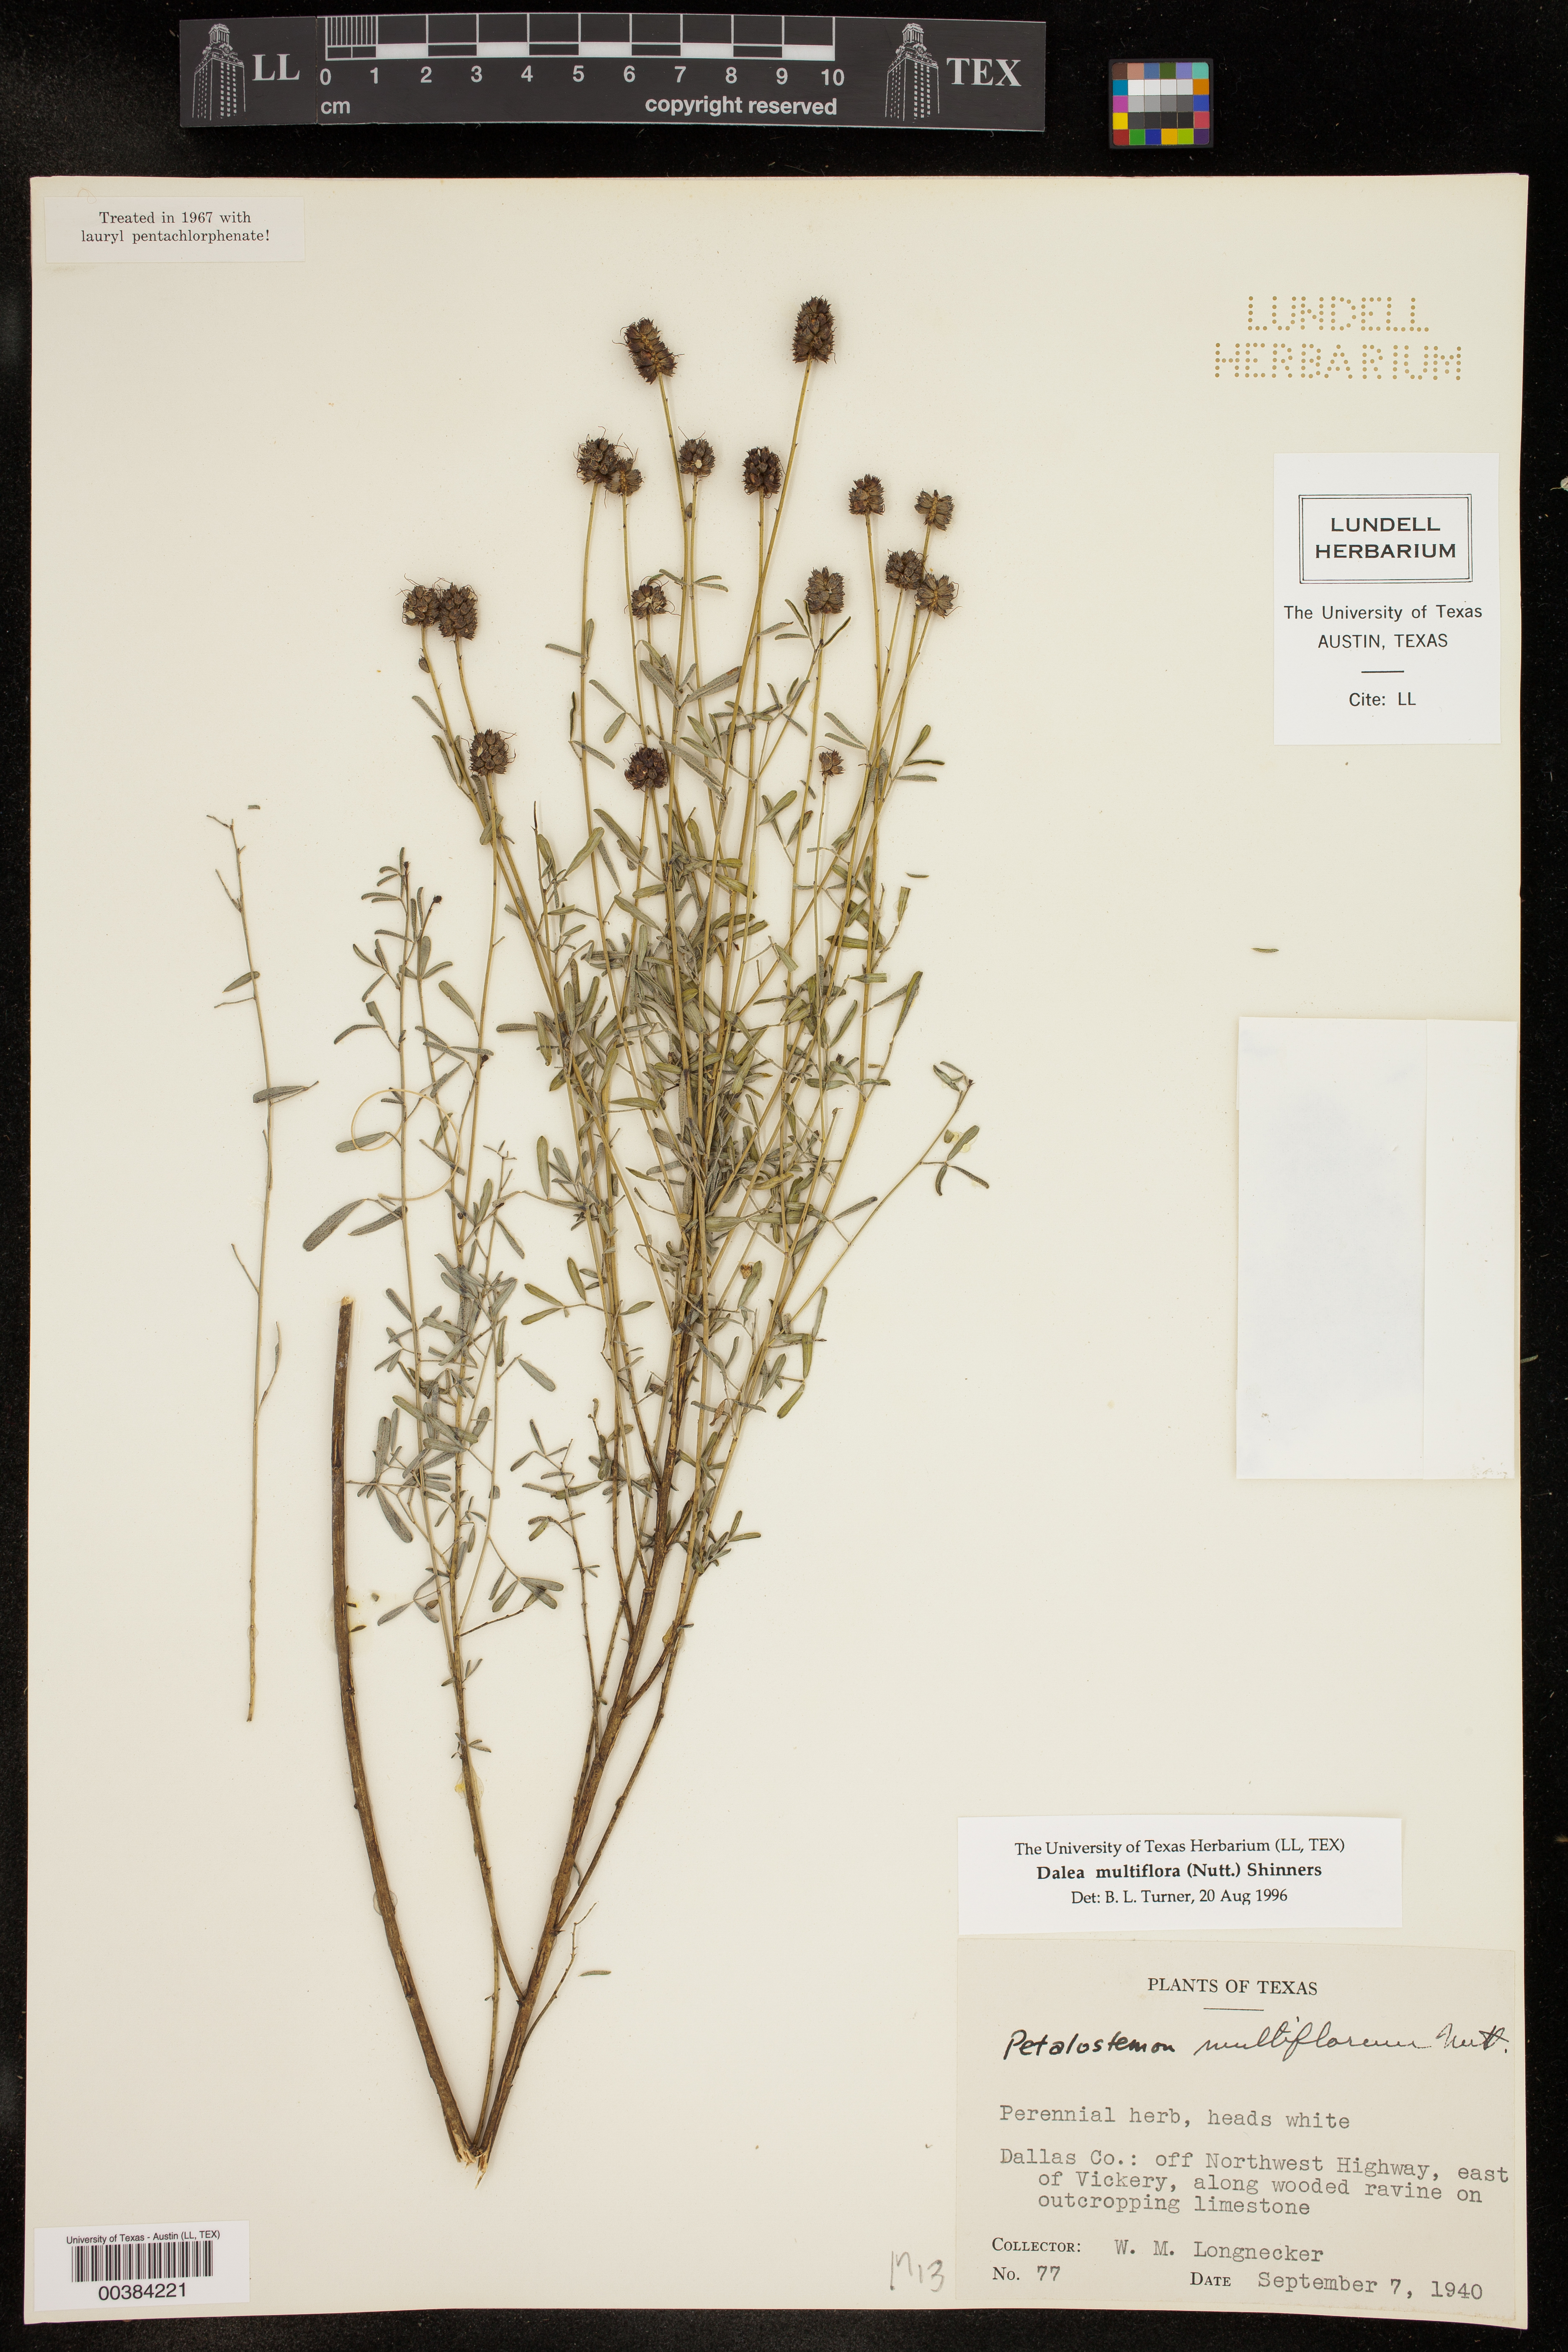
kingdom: Plantae
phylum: Tracheophyta
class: Magnoliopsida
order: Fabales
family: Fabaceae
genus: Dalea
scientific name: Dalea multiflora
